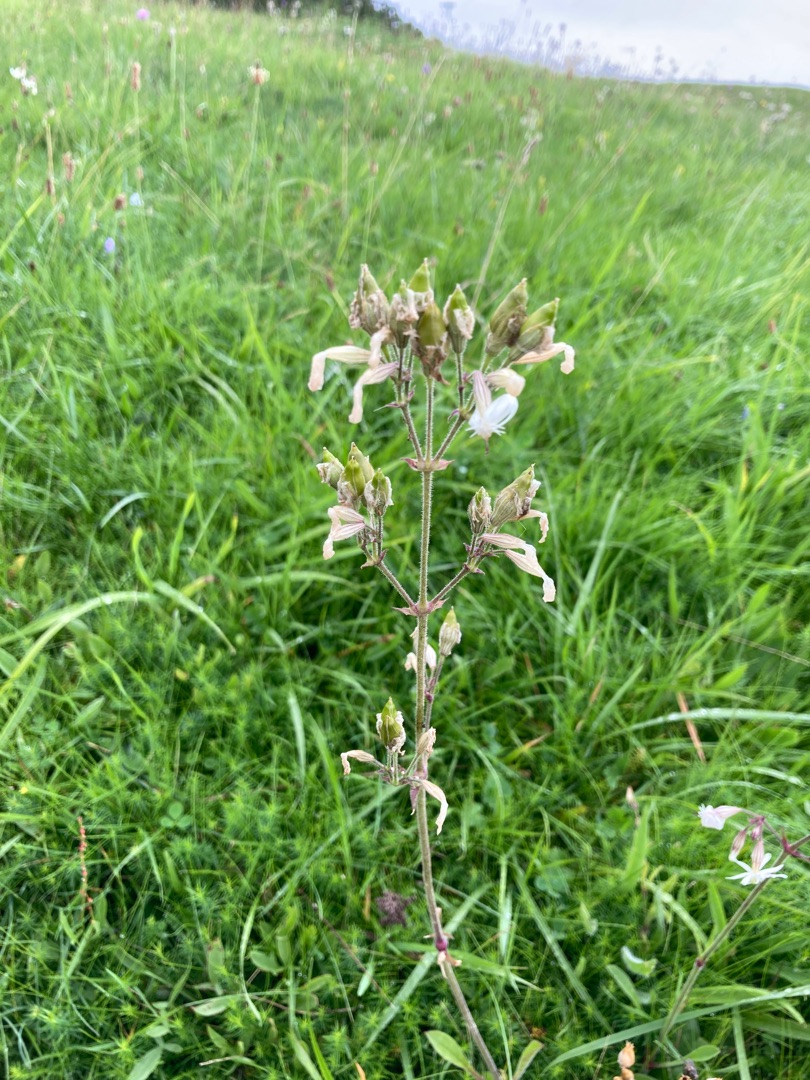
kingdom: Plantae
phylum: Tracheophyta
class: Magnoliopsida
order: Caryophyllales
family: Caryophyllaceae
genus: Silene
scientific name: Silene nutans
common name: Nikkende limurt
